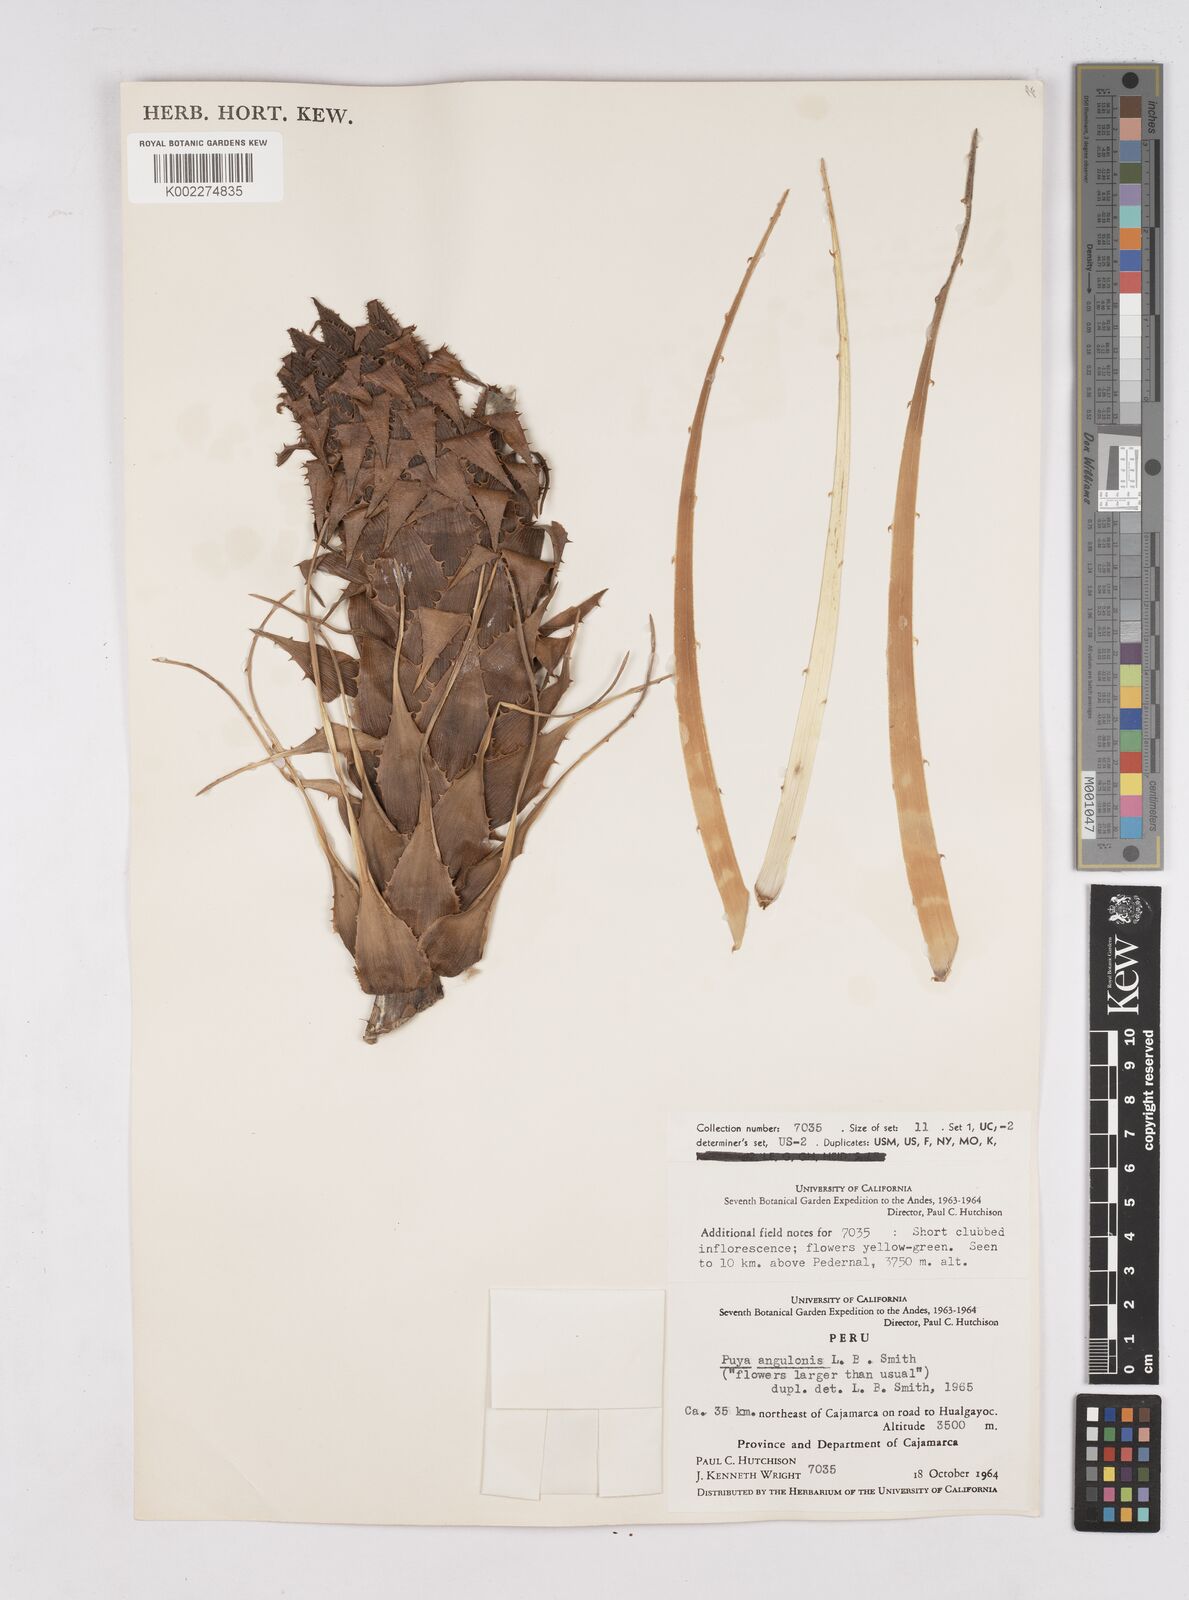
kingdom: Plantae
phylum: Tracheophyta
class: Liliopsida
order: Poales
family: Bromeliaceae
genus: Puya
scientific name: Puya angulonis
